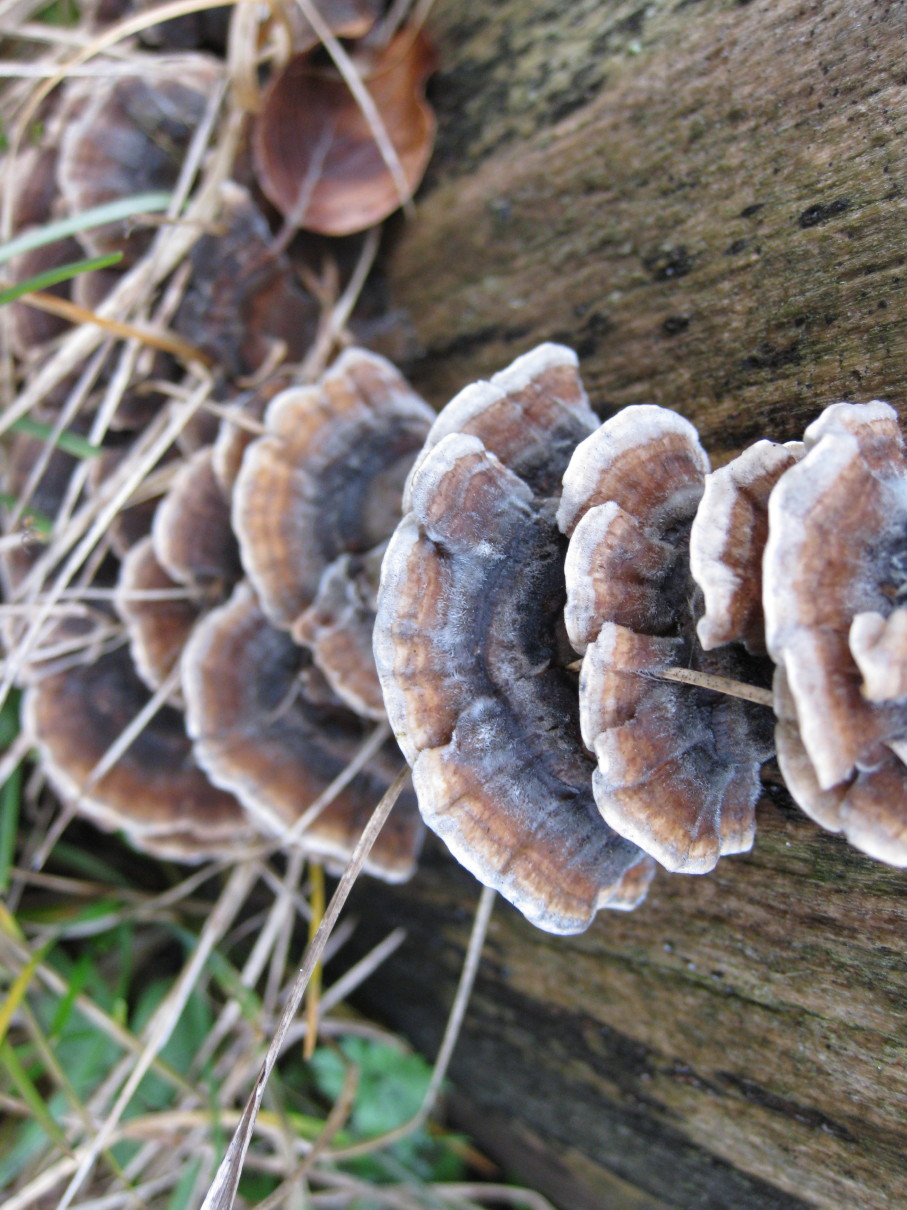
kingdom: Fungi
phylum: Basidiomycota
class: Agaricomycetes
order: Polyporales
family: Polyporaceae
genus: Trametes
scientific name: Trametes versicolor
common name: broget læderporesvamp
